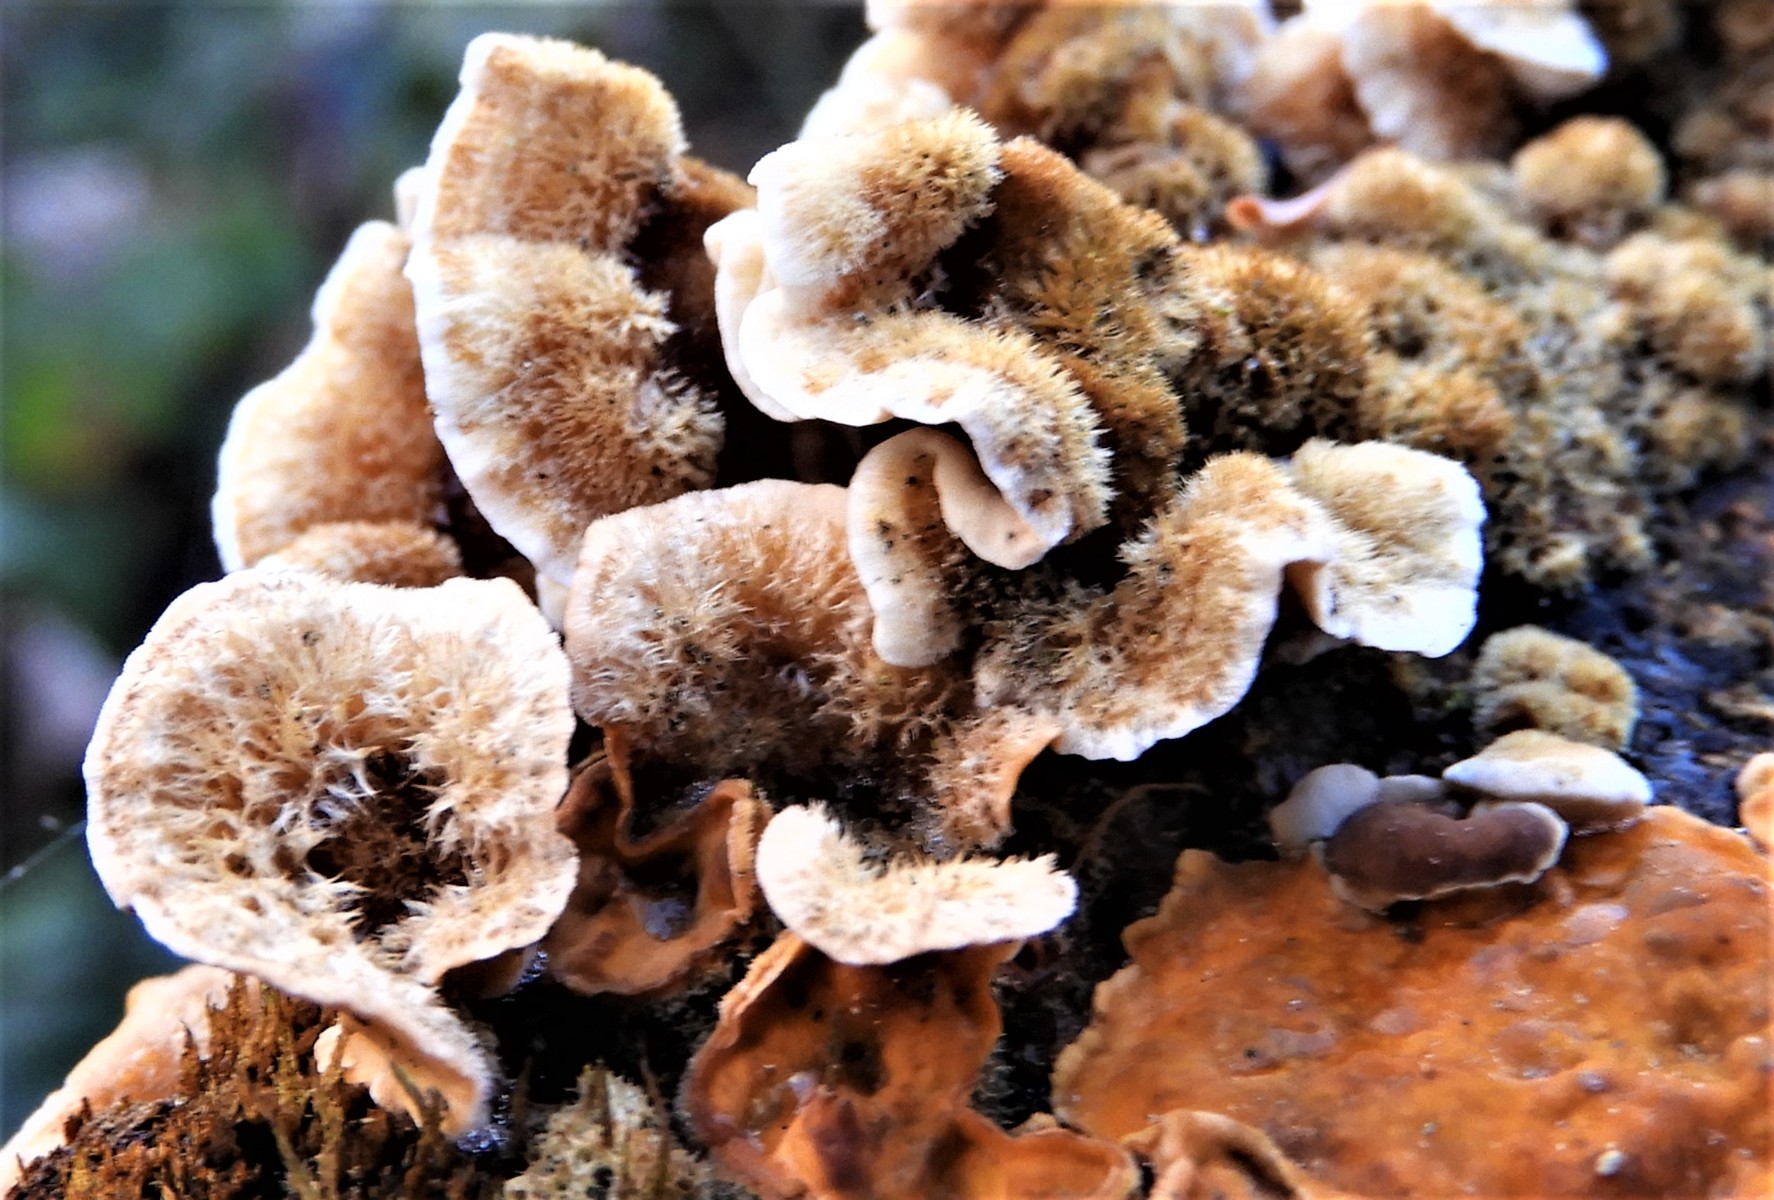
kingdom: Fungi
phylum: Basidiomycota
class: Agaricomycetes
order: Russulales
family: Stereaceae
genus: Stereum
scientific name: Stereum hirsutum
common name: håret lædersvamp
